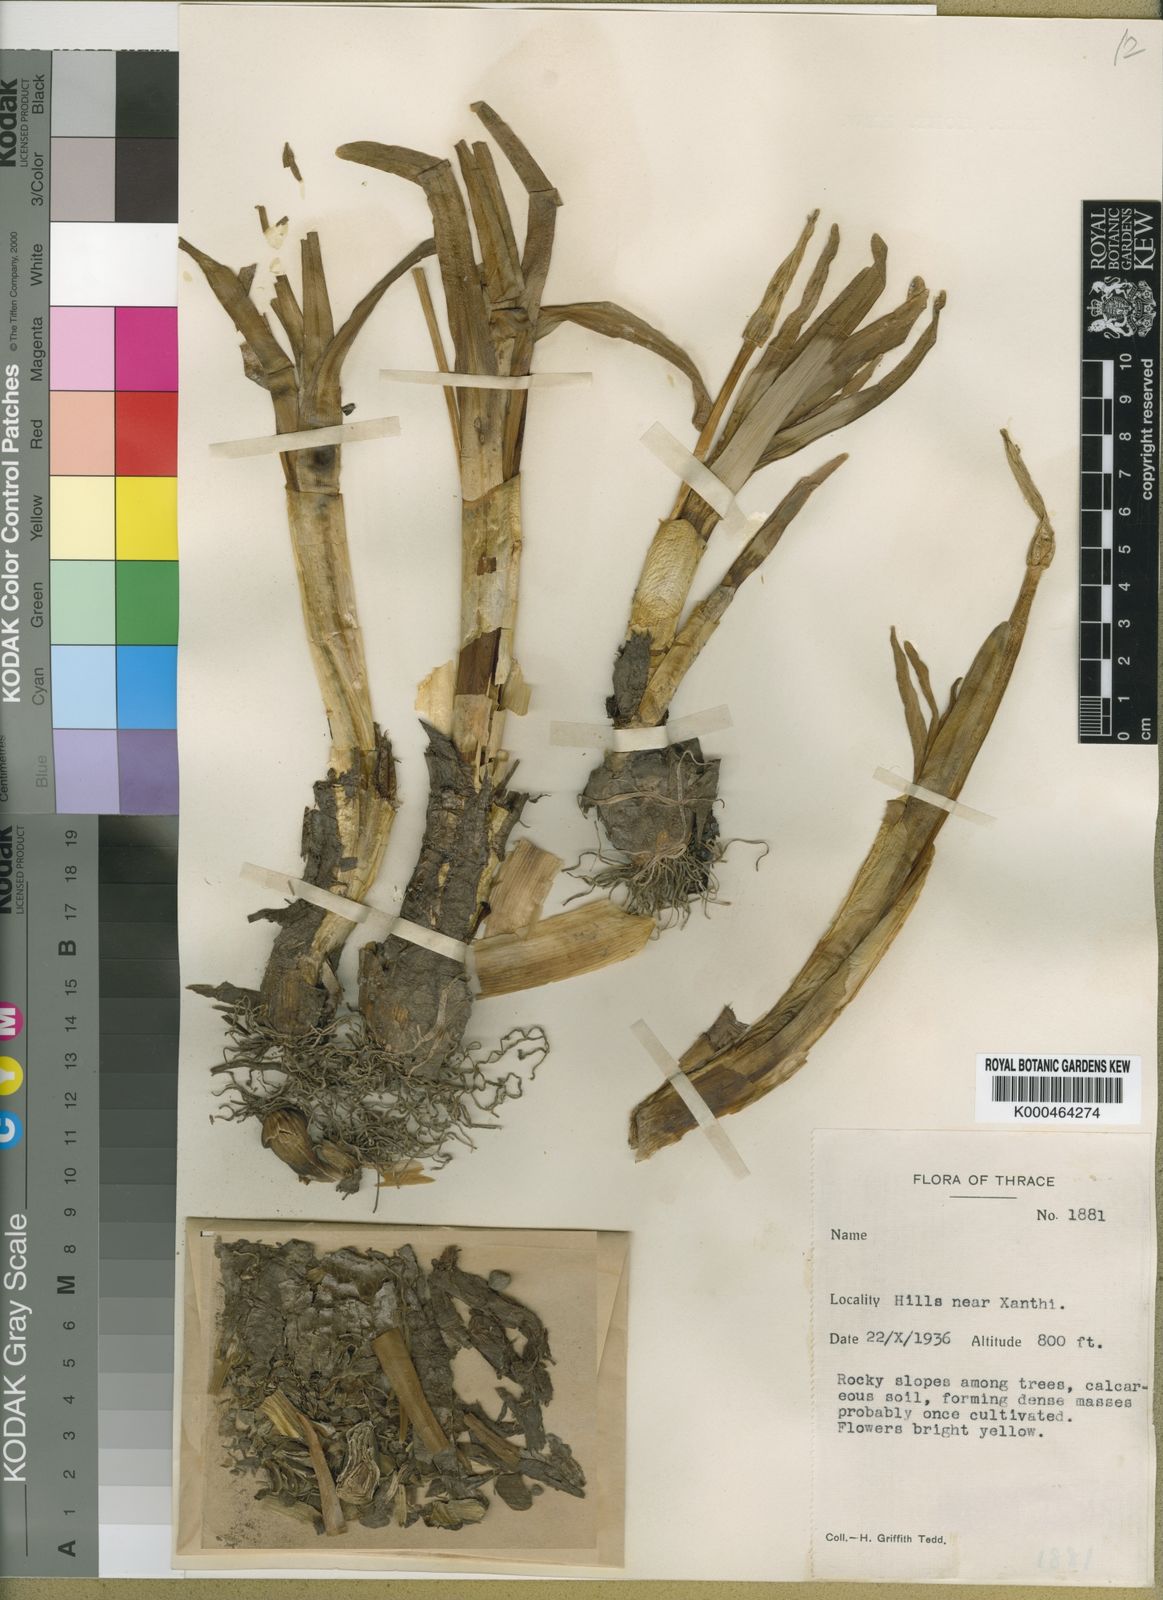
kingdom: Plantae
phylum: Tracheophyta
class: Liliopsida
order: Asparagales
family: Amaryllidaceae
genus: Sternbergia
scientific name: Sternbergia
